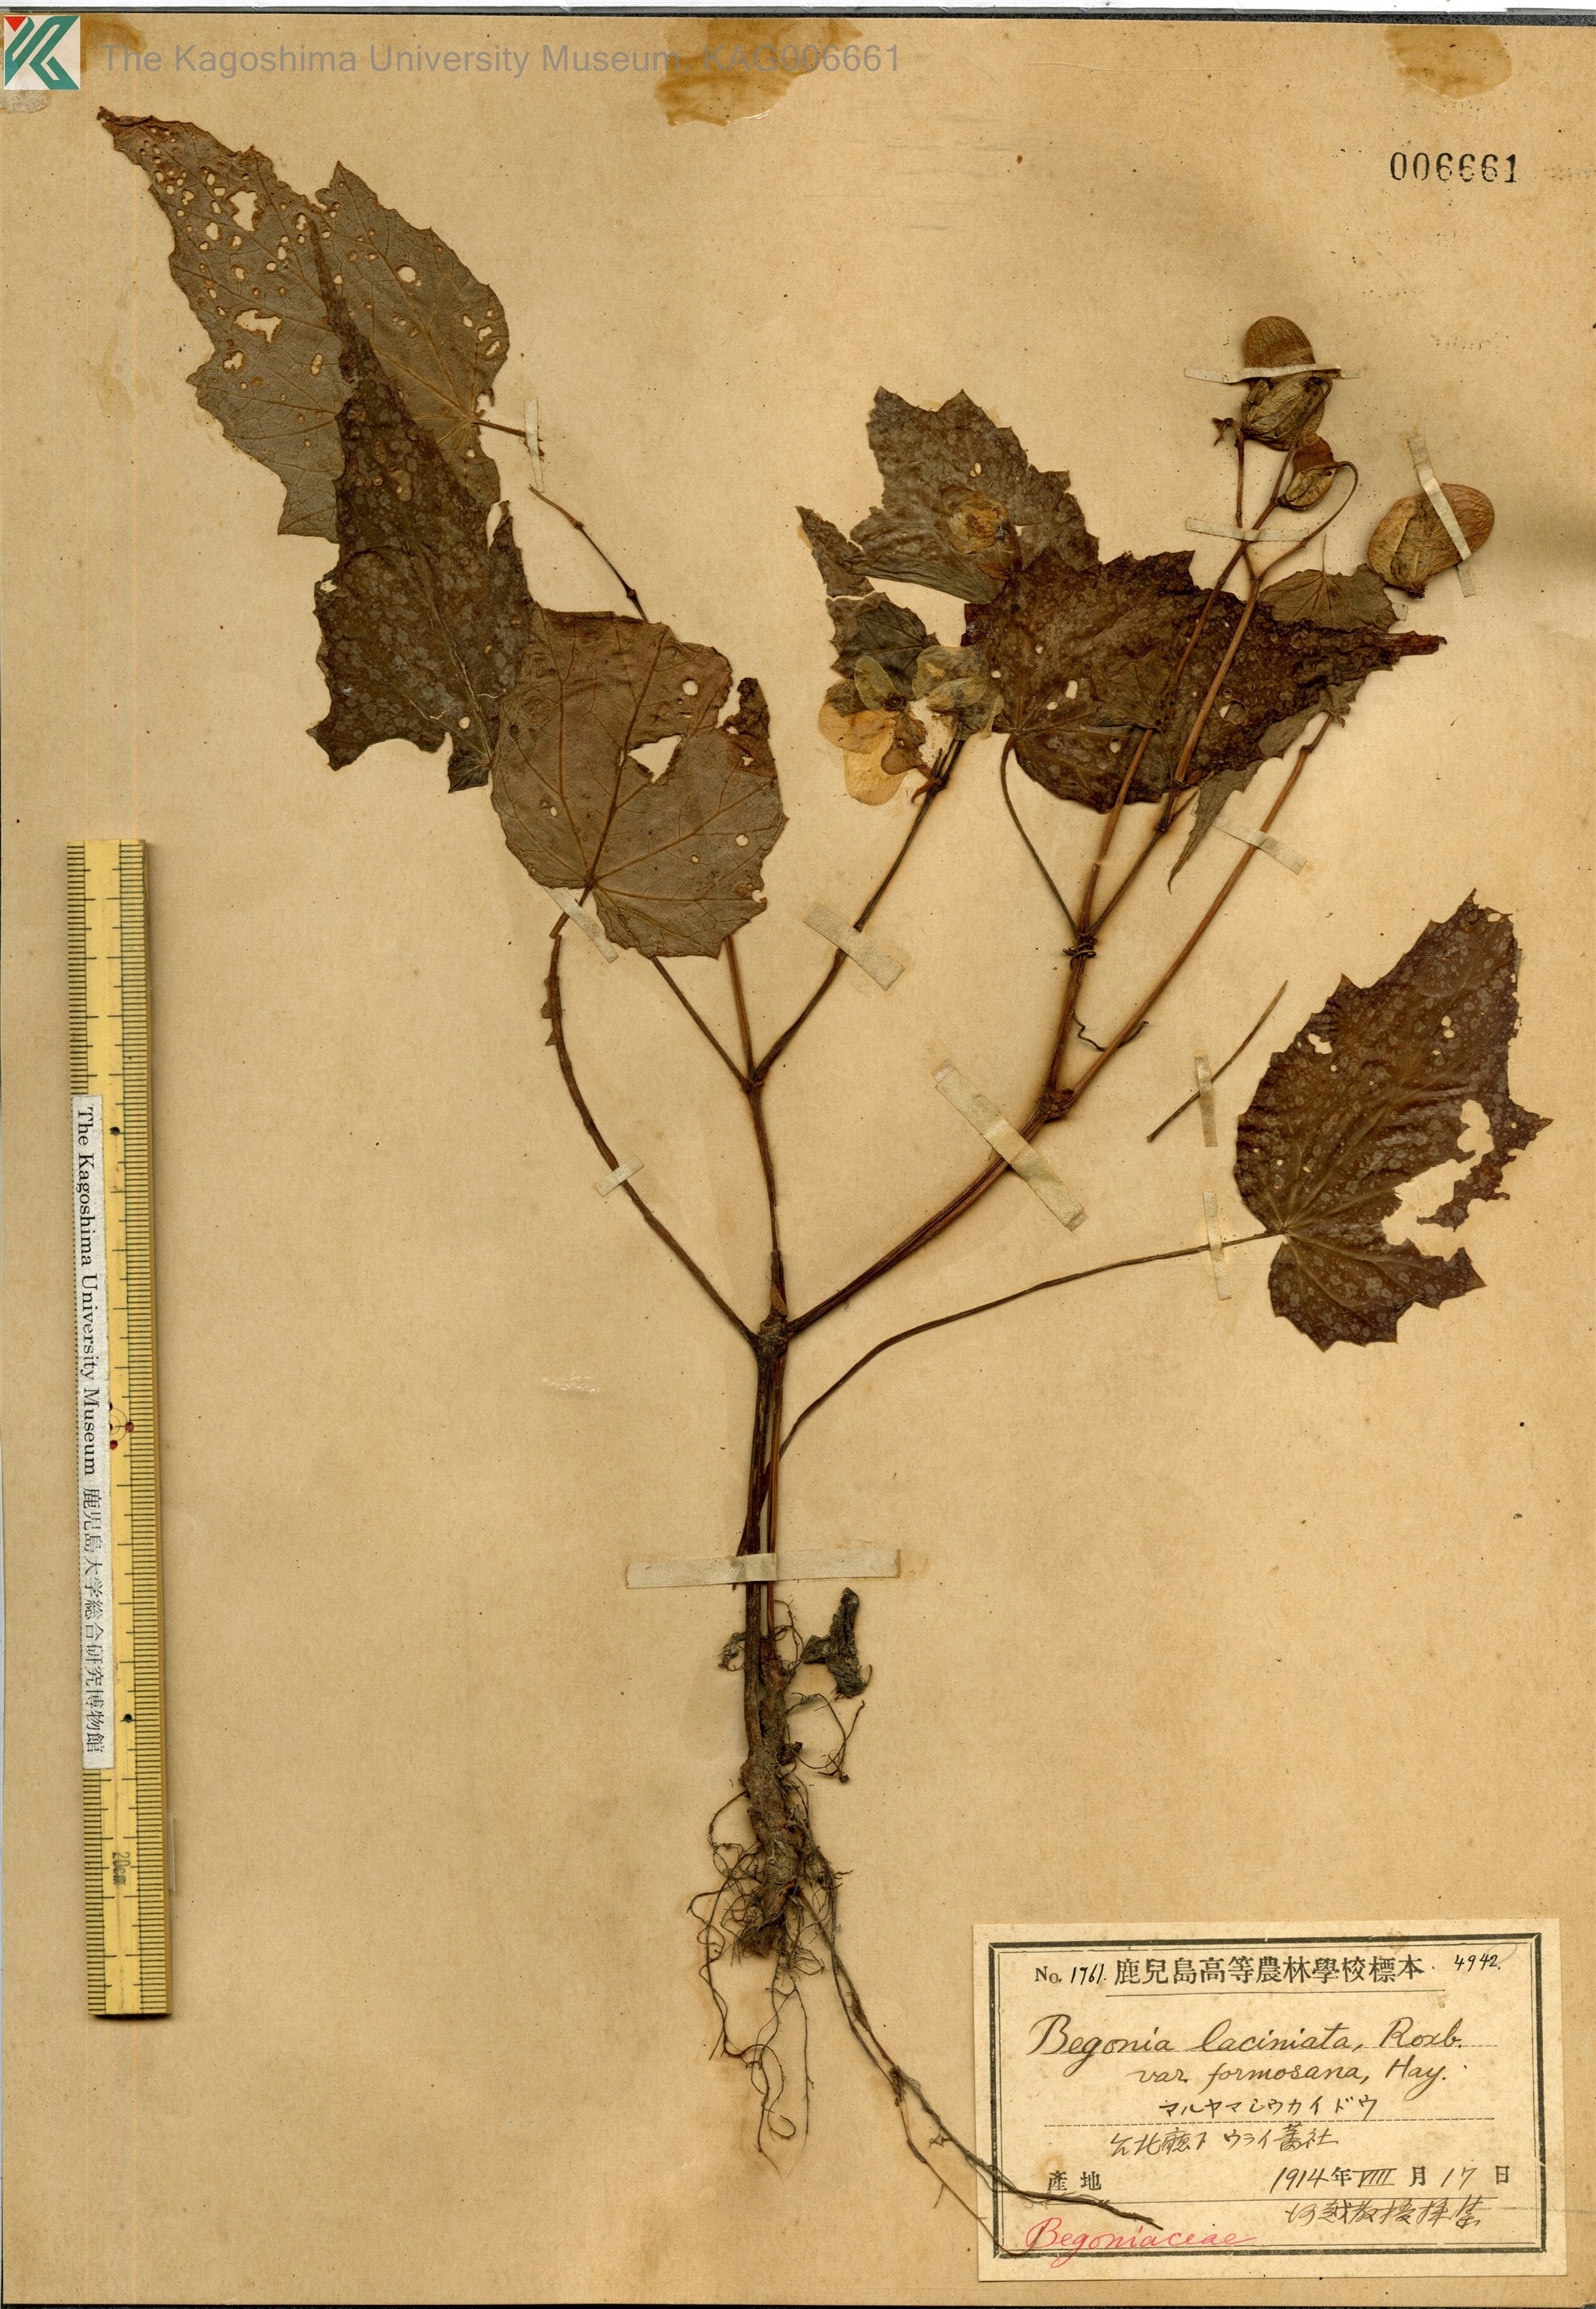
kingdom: Plantae
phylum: Tracheophyta
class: Magnoliopsida
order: Cucurbitales
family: Begoniaceae
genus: Begonia
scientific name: Begonia palmata
